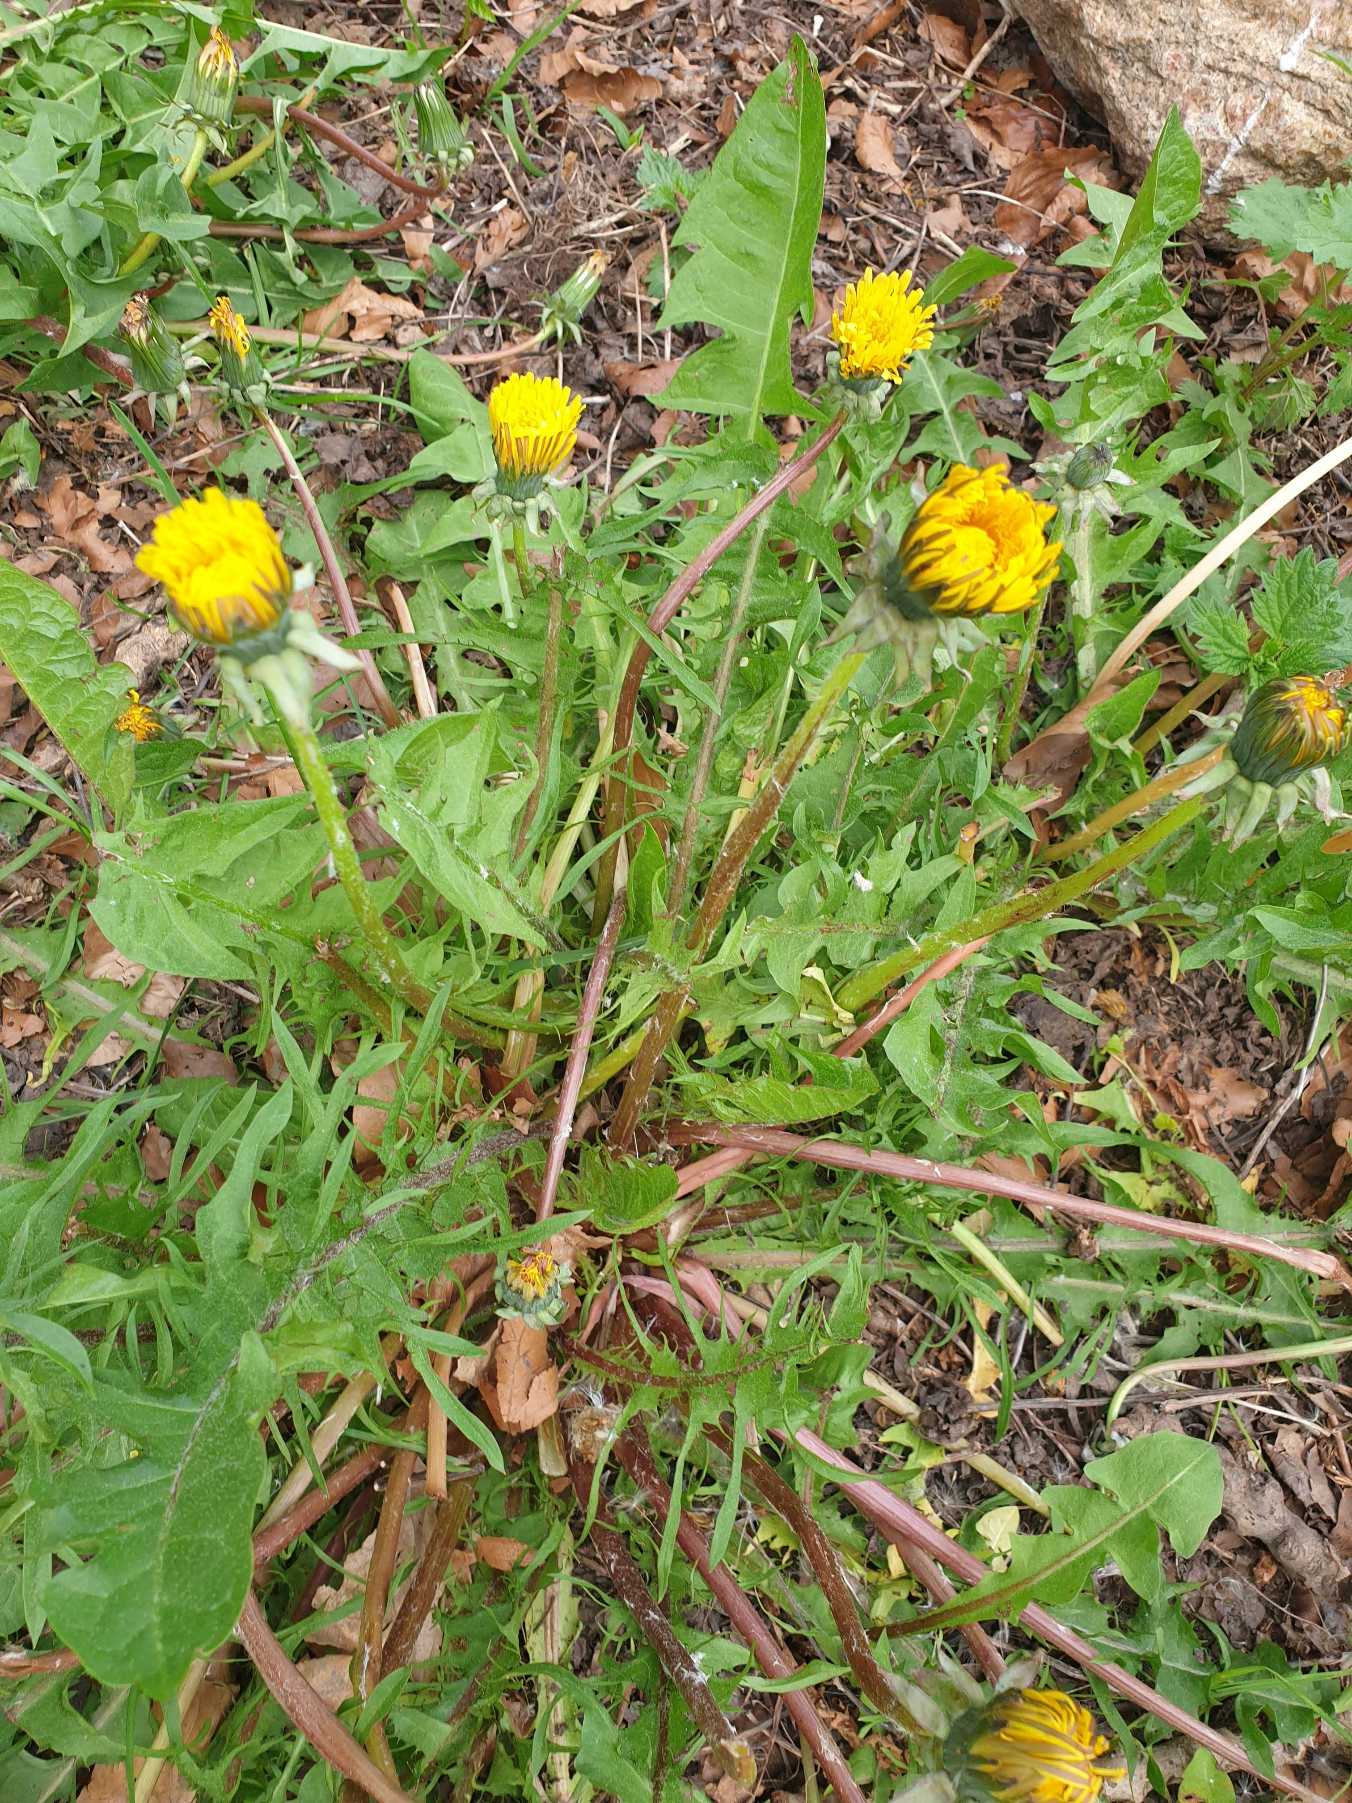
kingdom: Plantae
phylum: Tracheophyta
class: Magnoliopsida
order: Asterales
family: Asteraceae
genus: Taraxacum
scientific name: Taraxacum
